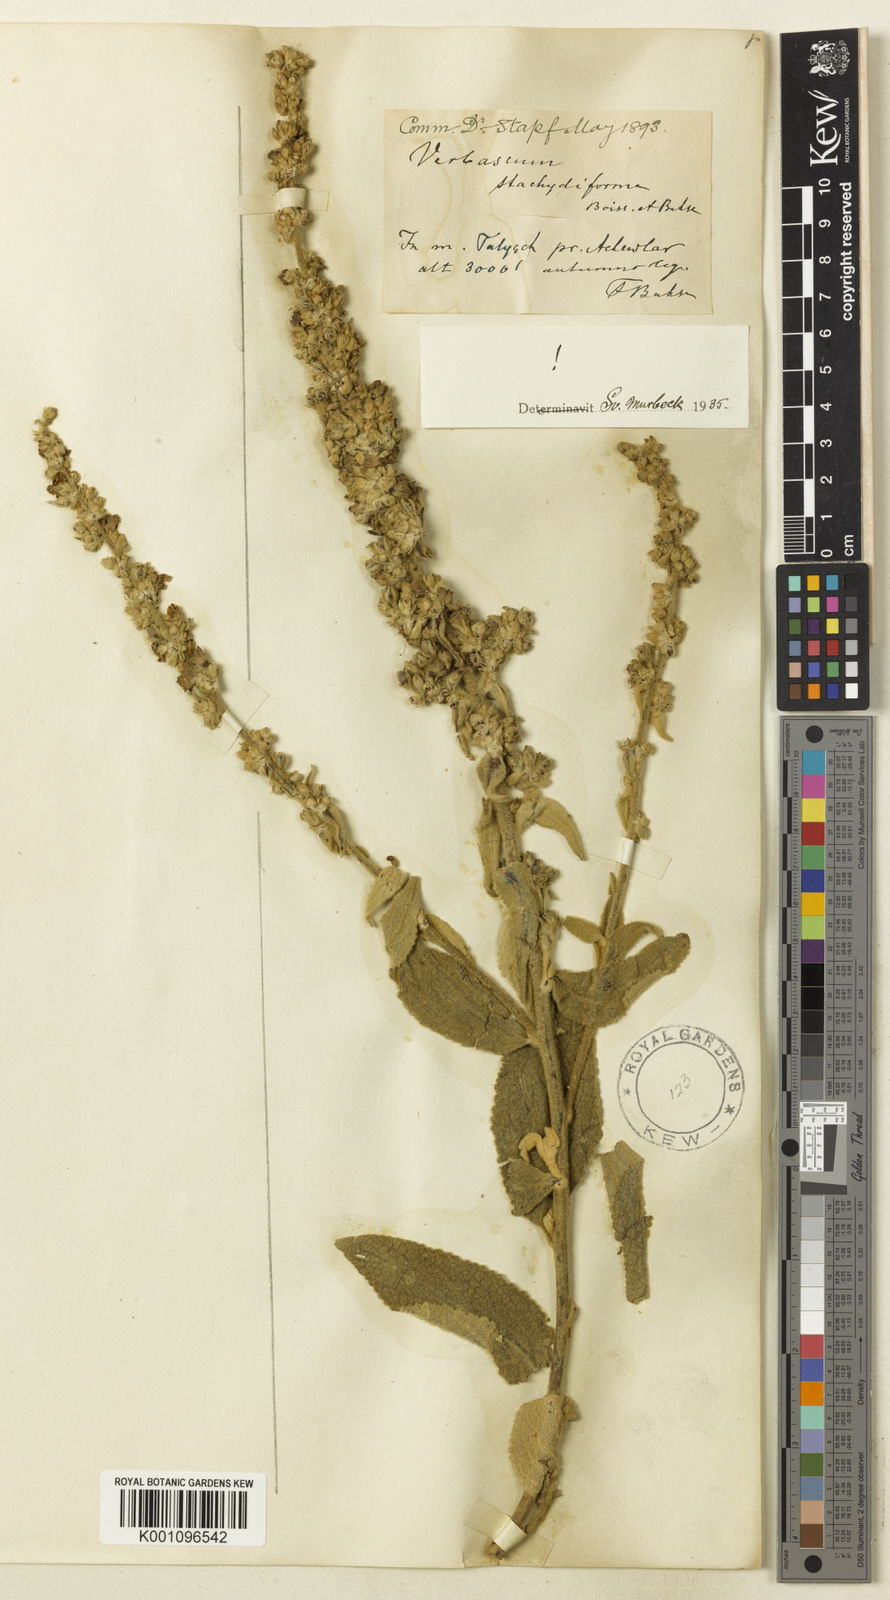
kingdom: Plantae
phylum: Tracheophyta
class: Magnoliopsida
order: Lamiales
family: Scrophulariaceae
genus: Verbascum
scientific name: Verbascum stachydiforme
